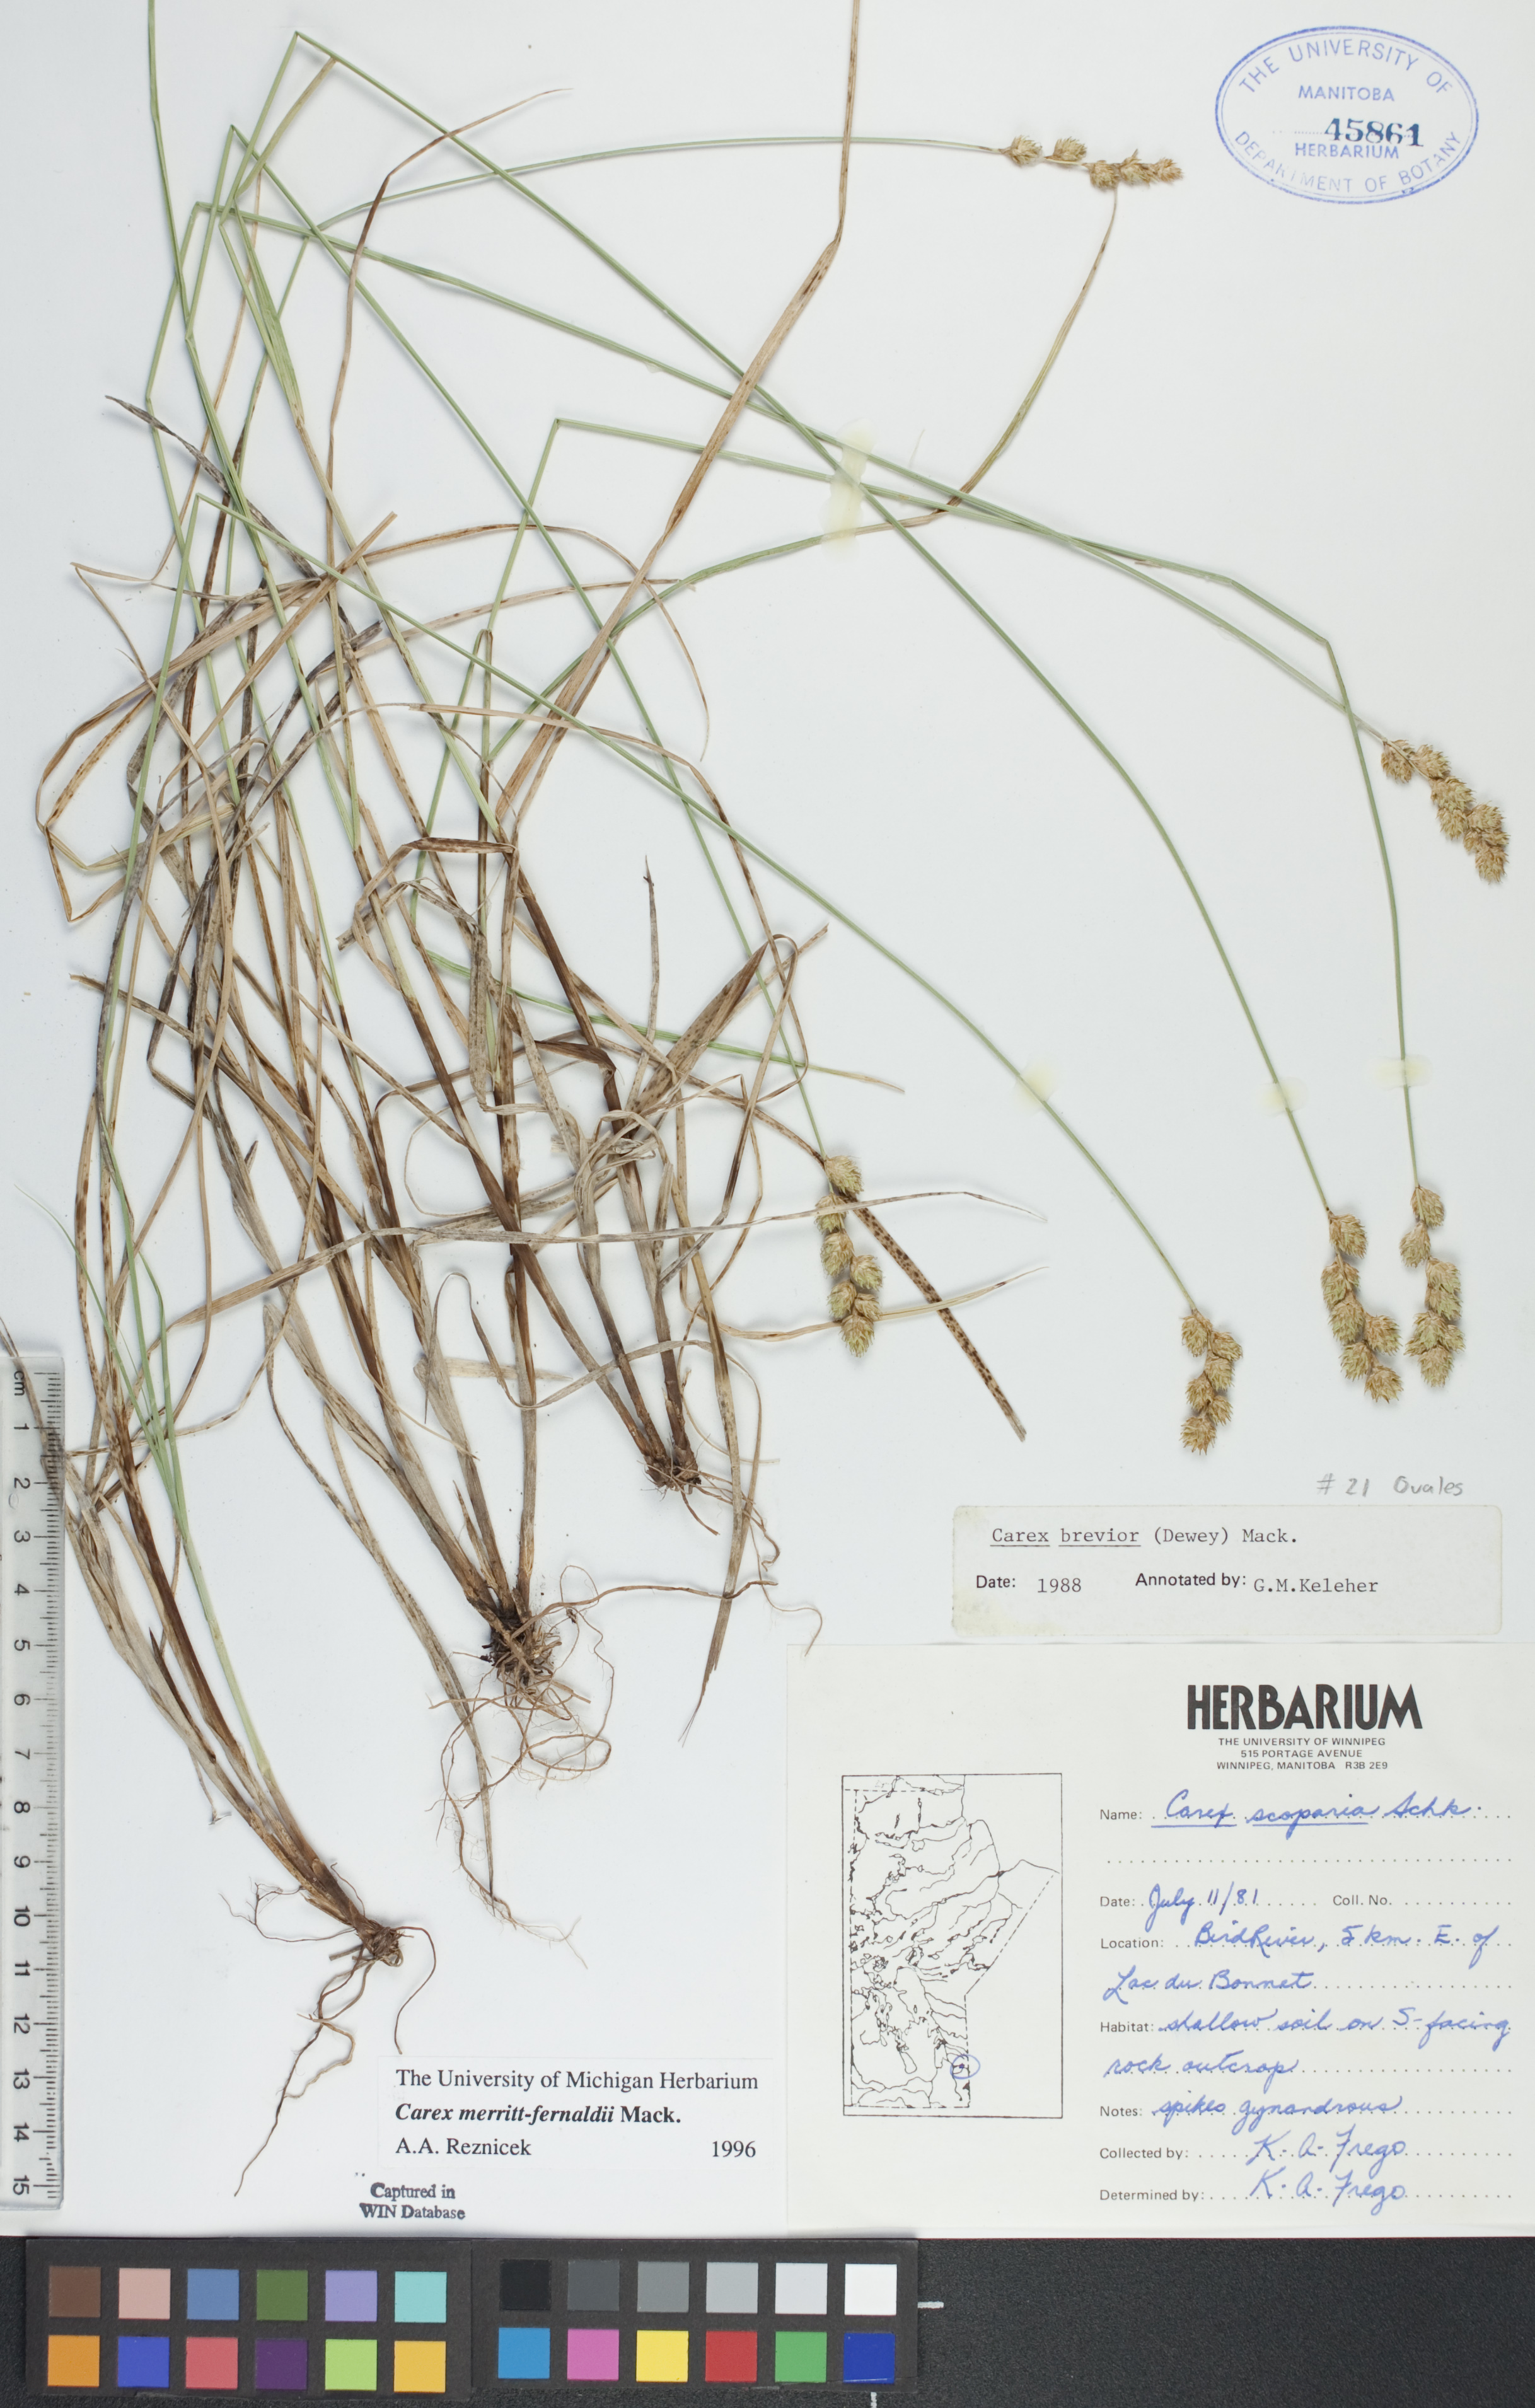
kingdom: Plantae
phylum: Tracheophyta
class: Liliopsida
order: Poales
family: Cyperaceae
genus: Carex
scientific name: Carex merritt-fernaldii
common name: Fernald's oval sedge
